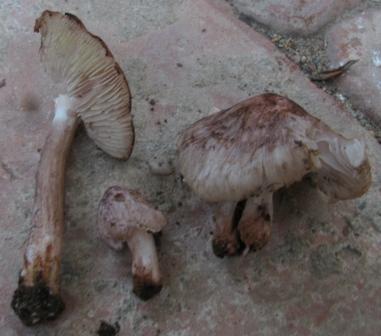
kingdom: Fungi
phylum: Basidiomycota
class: Agaricomycetes
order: Agaricales
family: Inocybaceae
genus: Inosperma
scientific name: Inosperma adaequatum
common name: vinrød trævlhat
